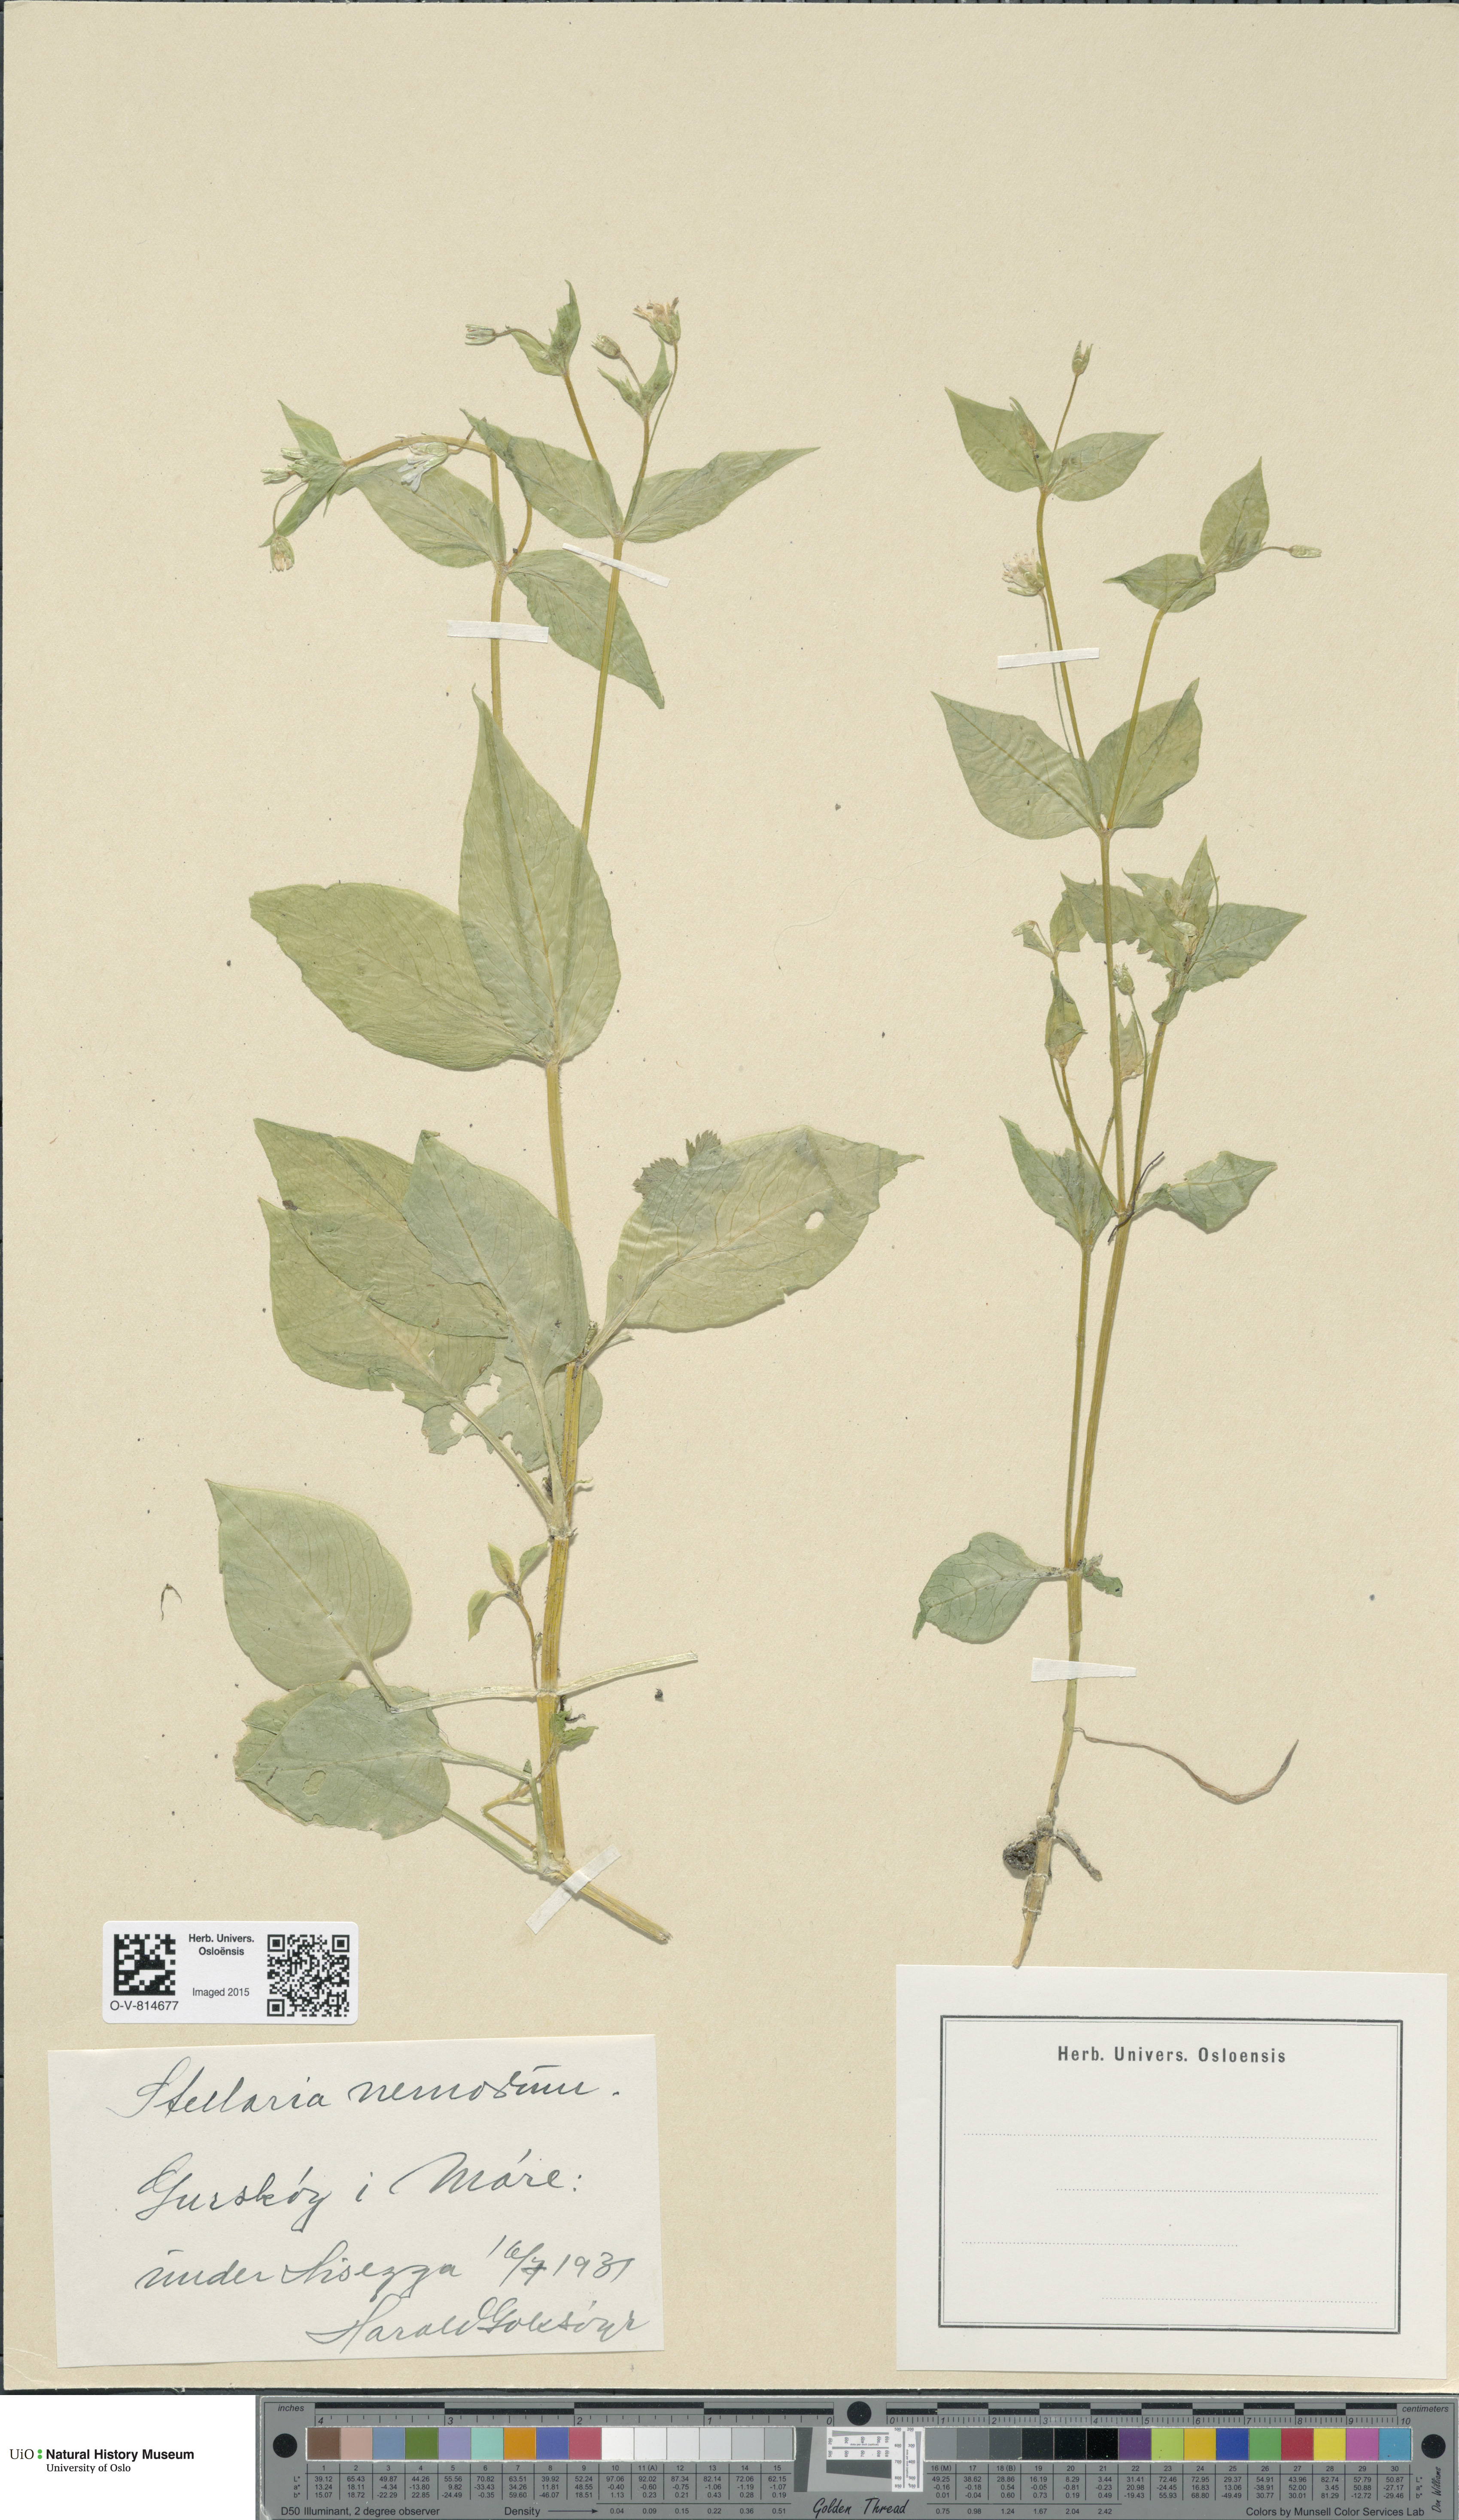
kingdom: Plantae
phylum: Tracheophyta
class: Magnoliopsida
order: Caryophyllales
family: Caryophyllaceae
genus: Stellaria
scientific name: Stellaria nemorum
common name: Wood stitchwort
